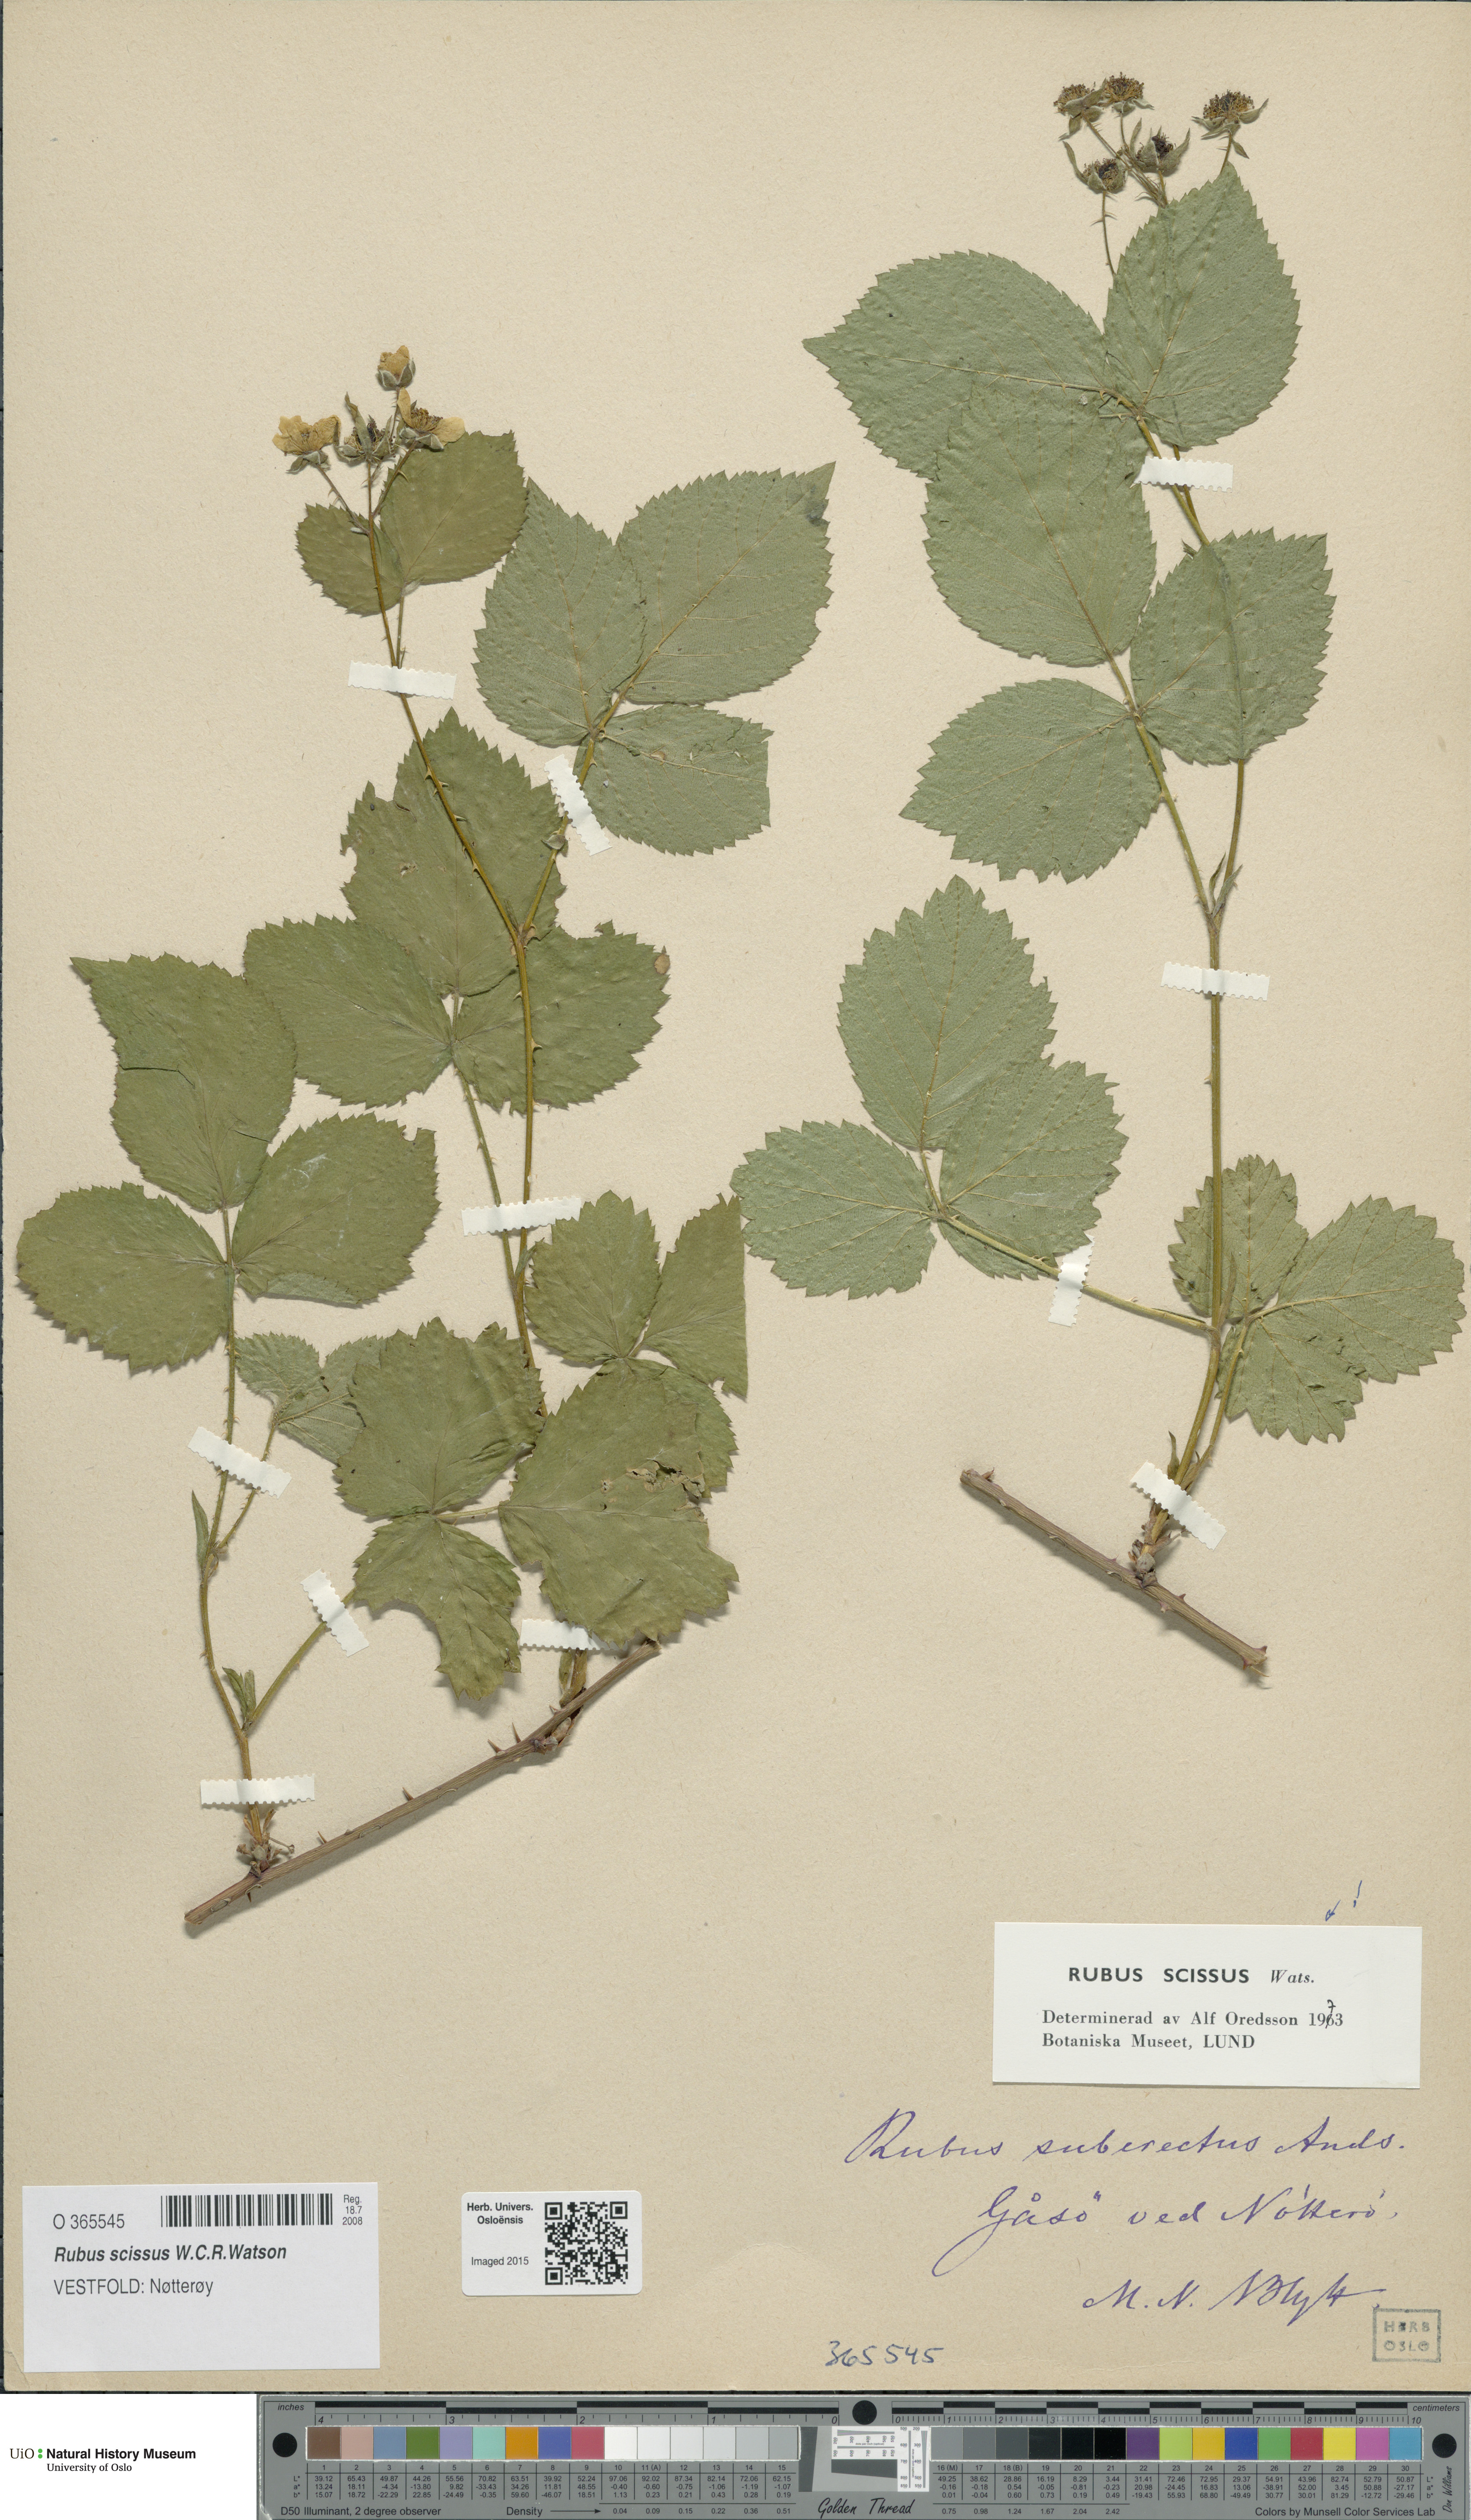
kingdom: Plantae
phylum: Tracheophyta
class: Magnoliopsida
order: Rosales
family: Rosaceae
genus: Rubus
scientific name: Rubus scissus
